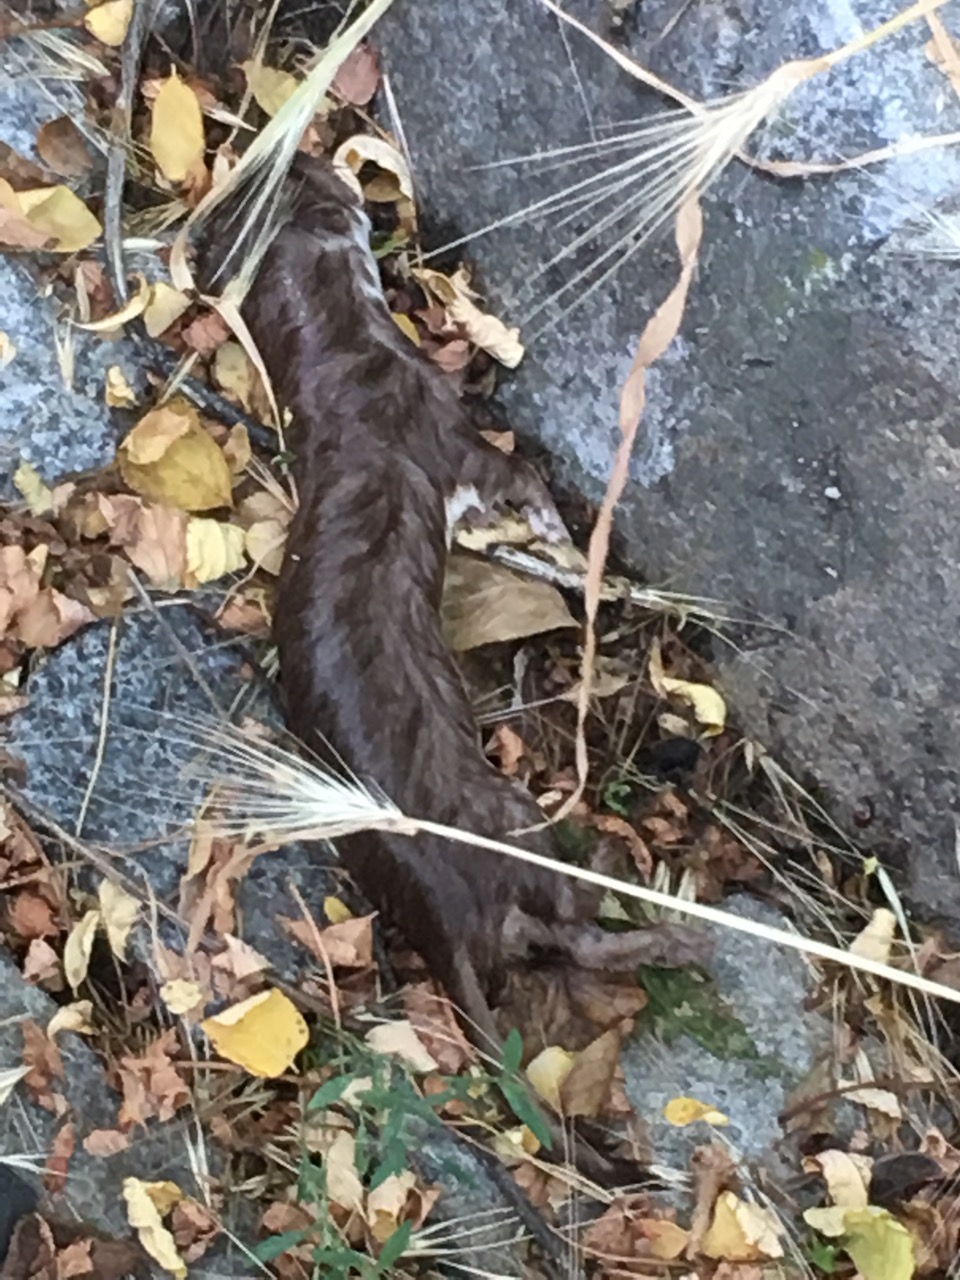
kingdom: Animalia
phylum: Chordata
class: Mammalia
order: Carnivora
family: Mustelidae
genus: Mustela
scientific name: Mustela nivalis
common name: Least weasel
